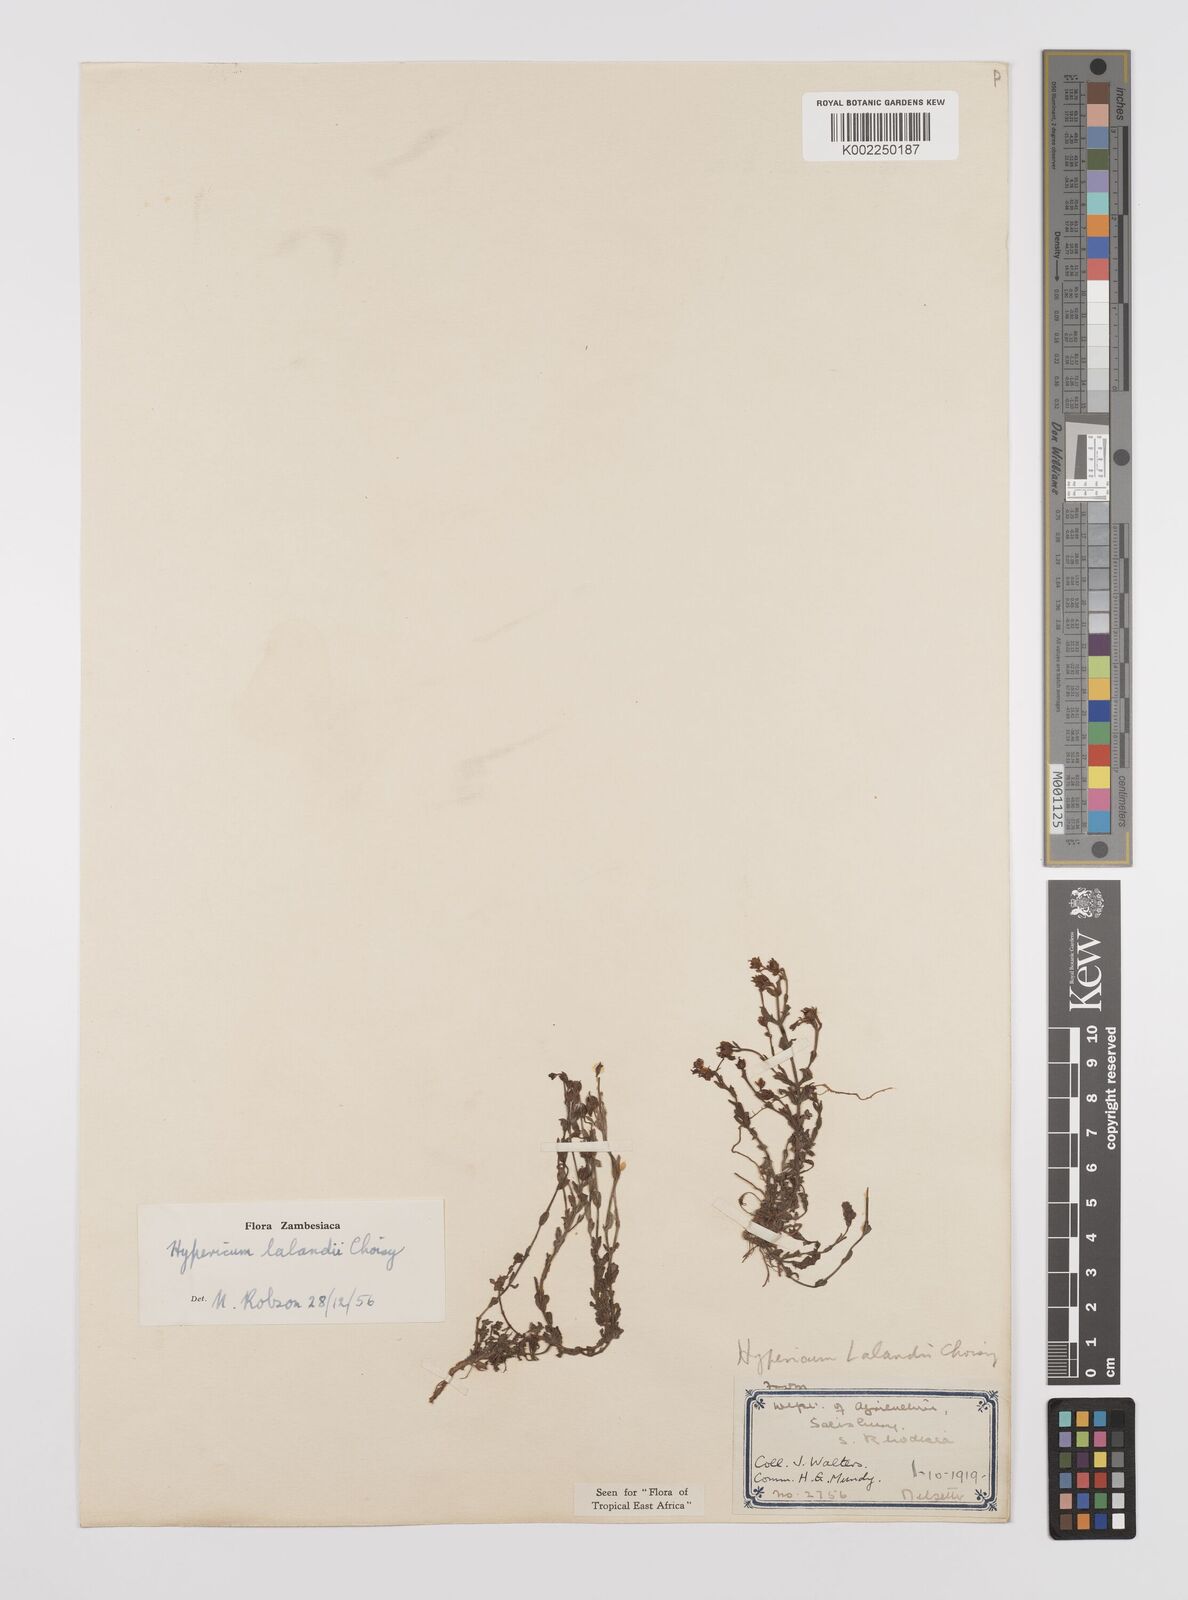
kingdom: Plantae
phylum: Tracheophyta
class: Magnoliopsida
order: Malpighiales
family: Hypericaceae
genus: Hypericum
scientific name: Hypericum lalandii
